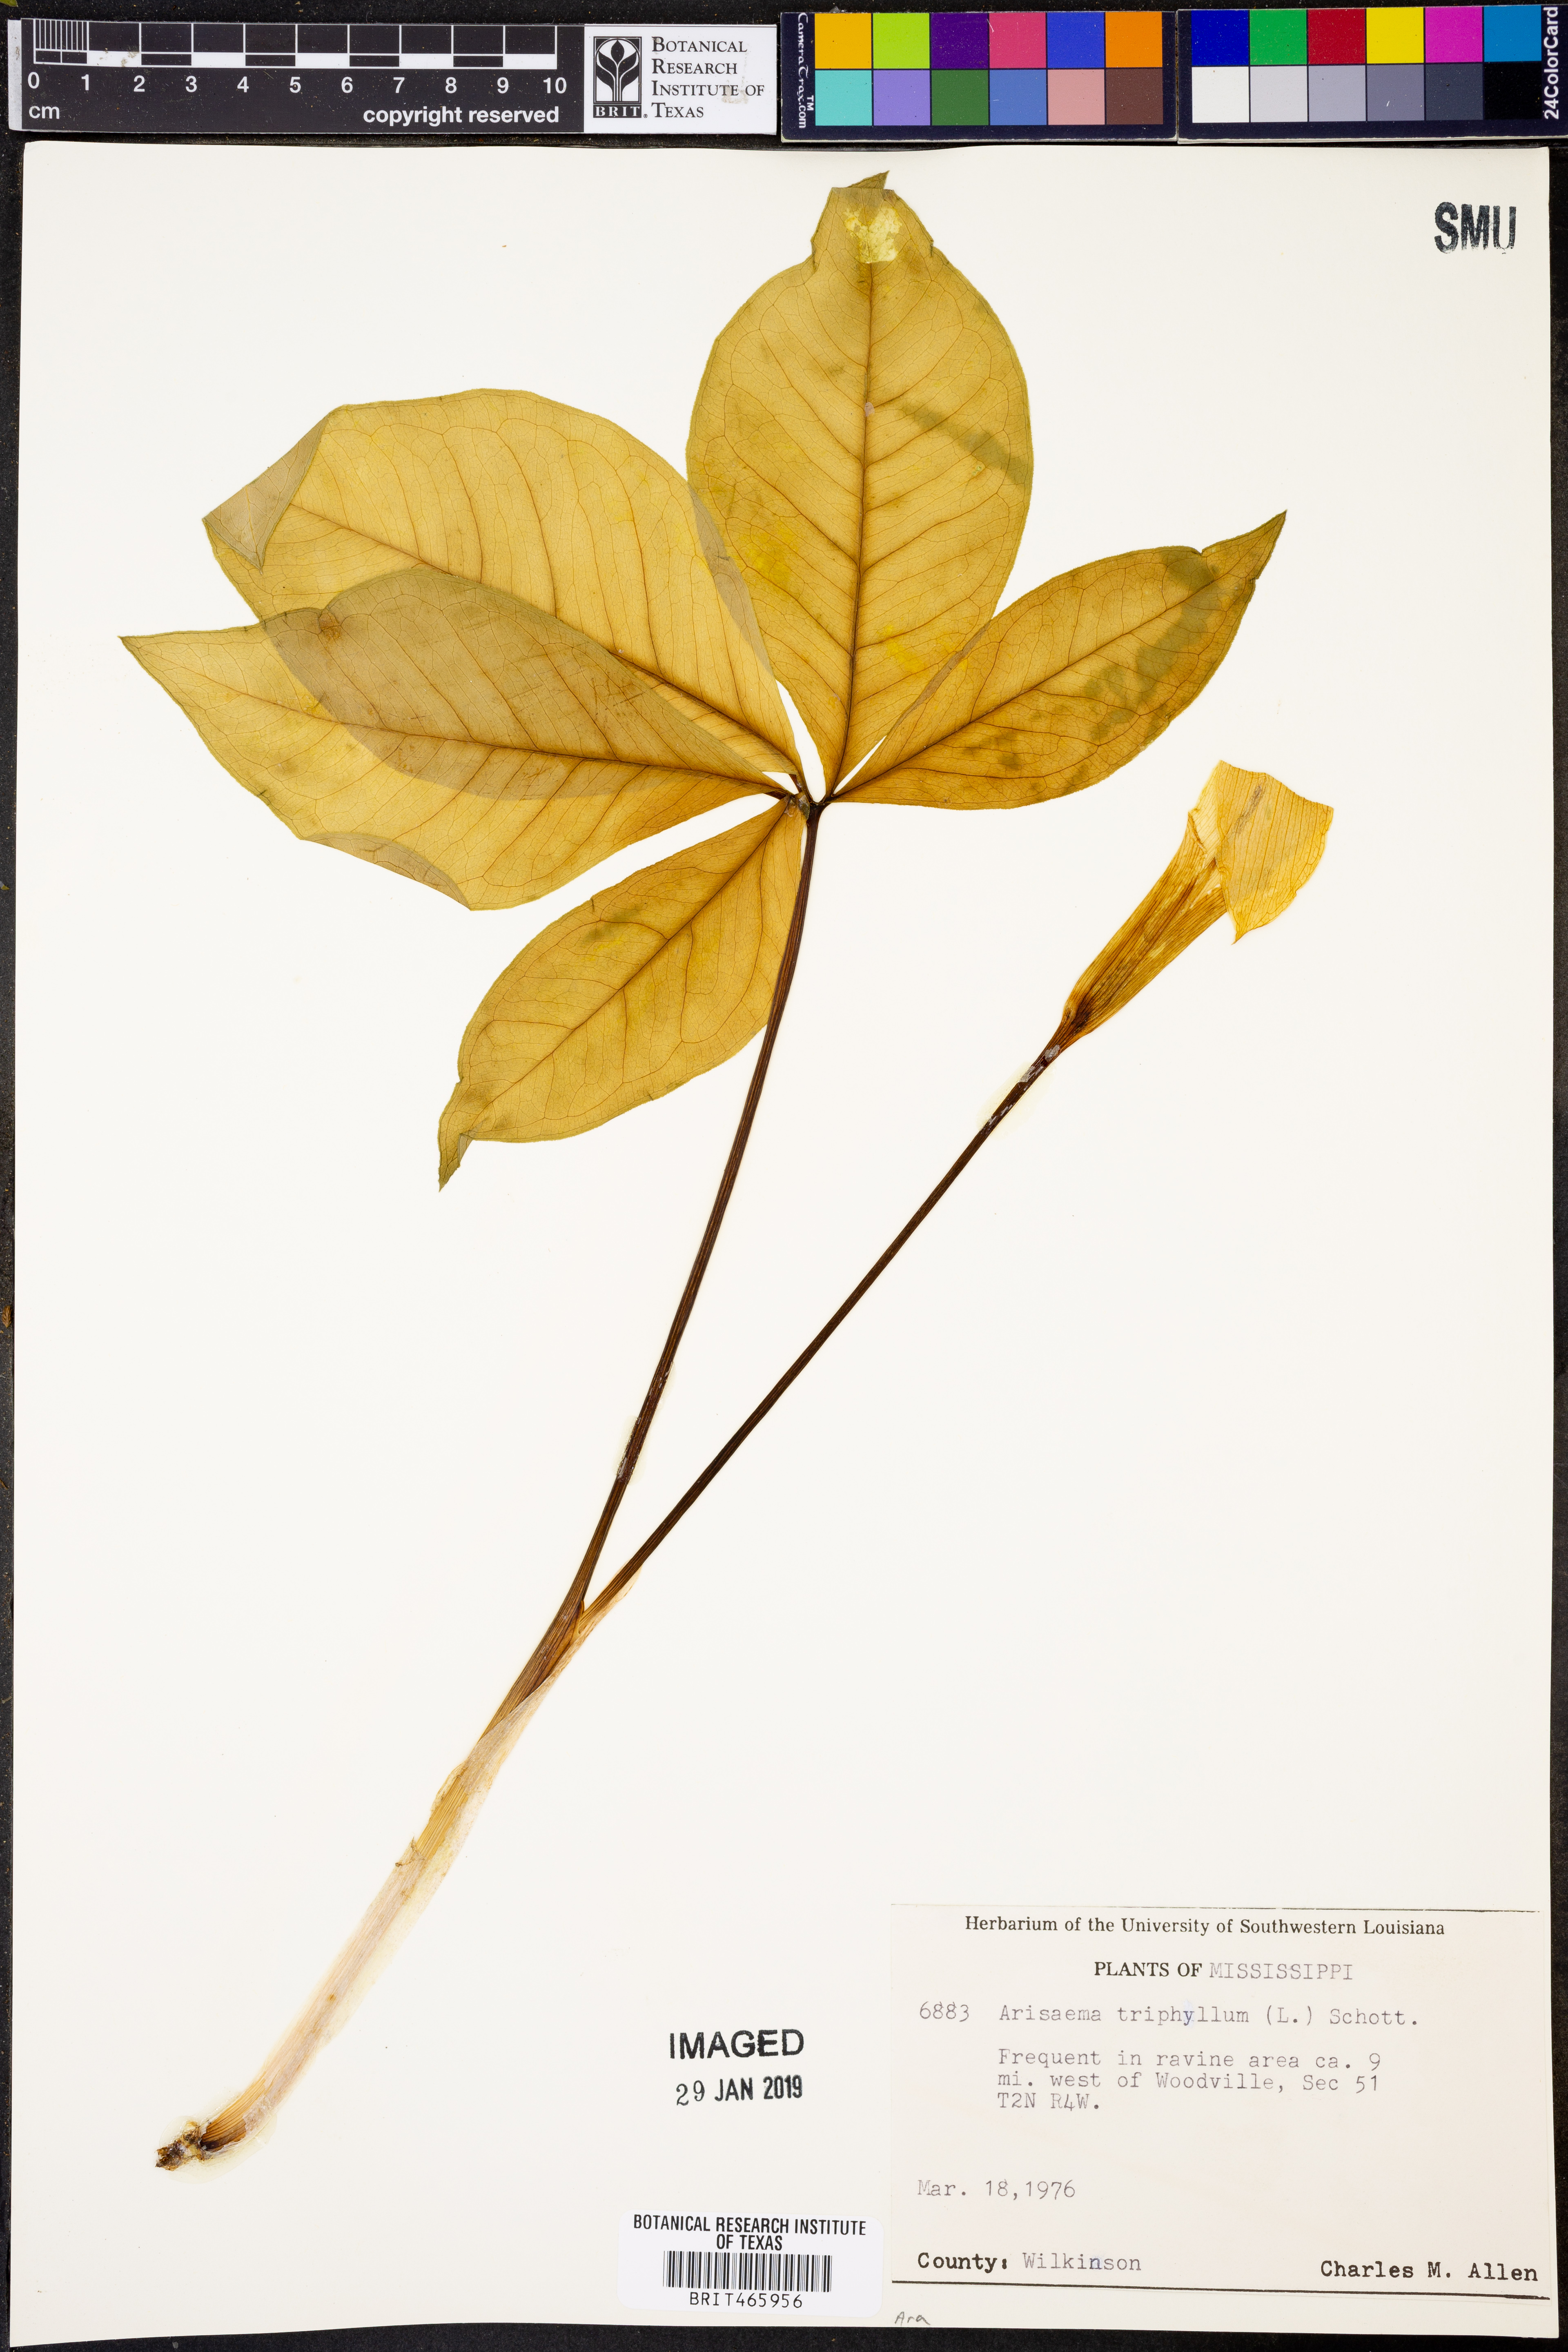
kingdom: Plantae
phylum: Tracheophyta
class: Liliopsida
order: Alismatales
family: Araceae
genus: Arisaema
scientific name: Arisaema triphyllum
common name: Jack-in-the-pulpit
